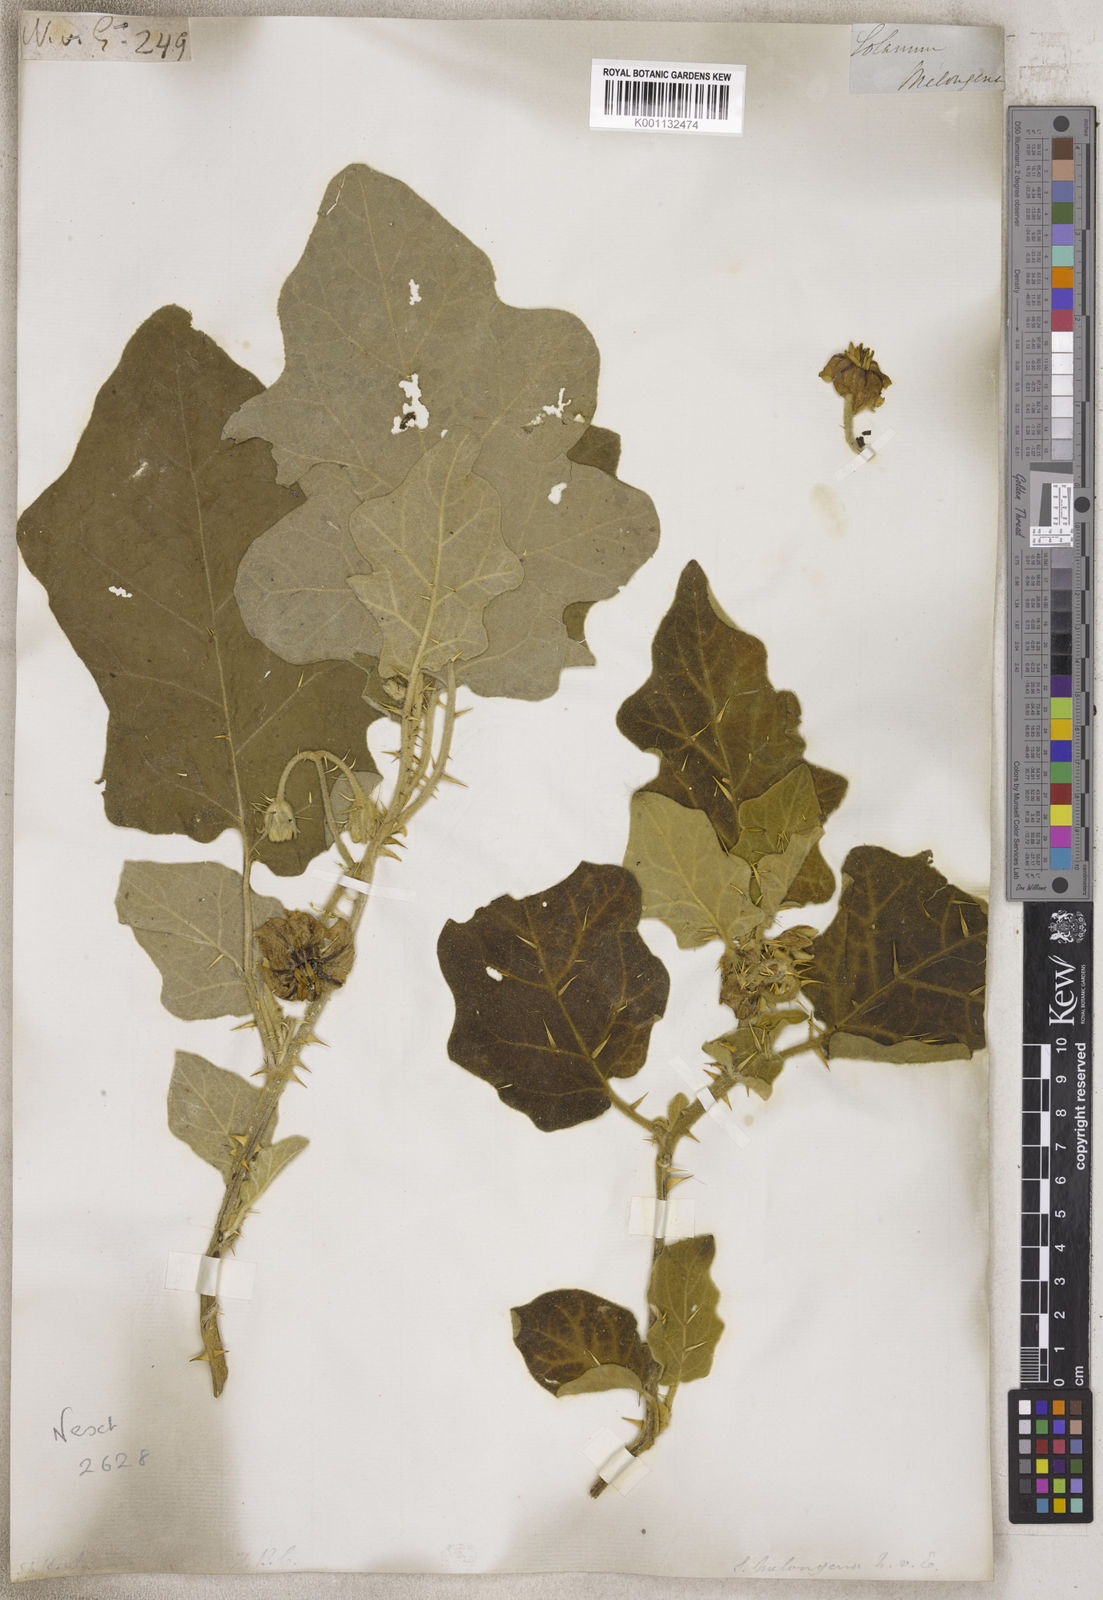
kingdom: Plantae
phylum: Tracheophyta
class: Magnoliopsida
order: Solanales
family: Solanaceae
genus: Solanum
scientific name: Solanum
